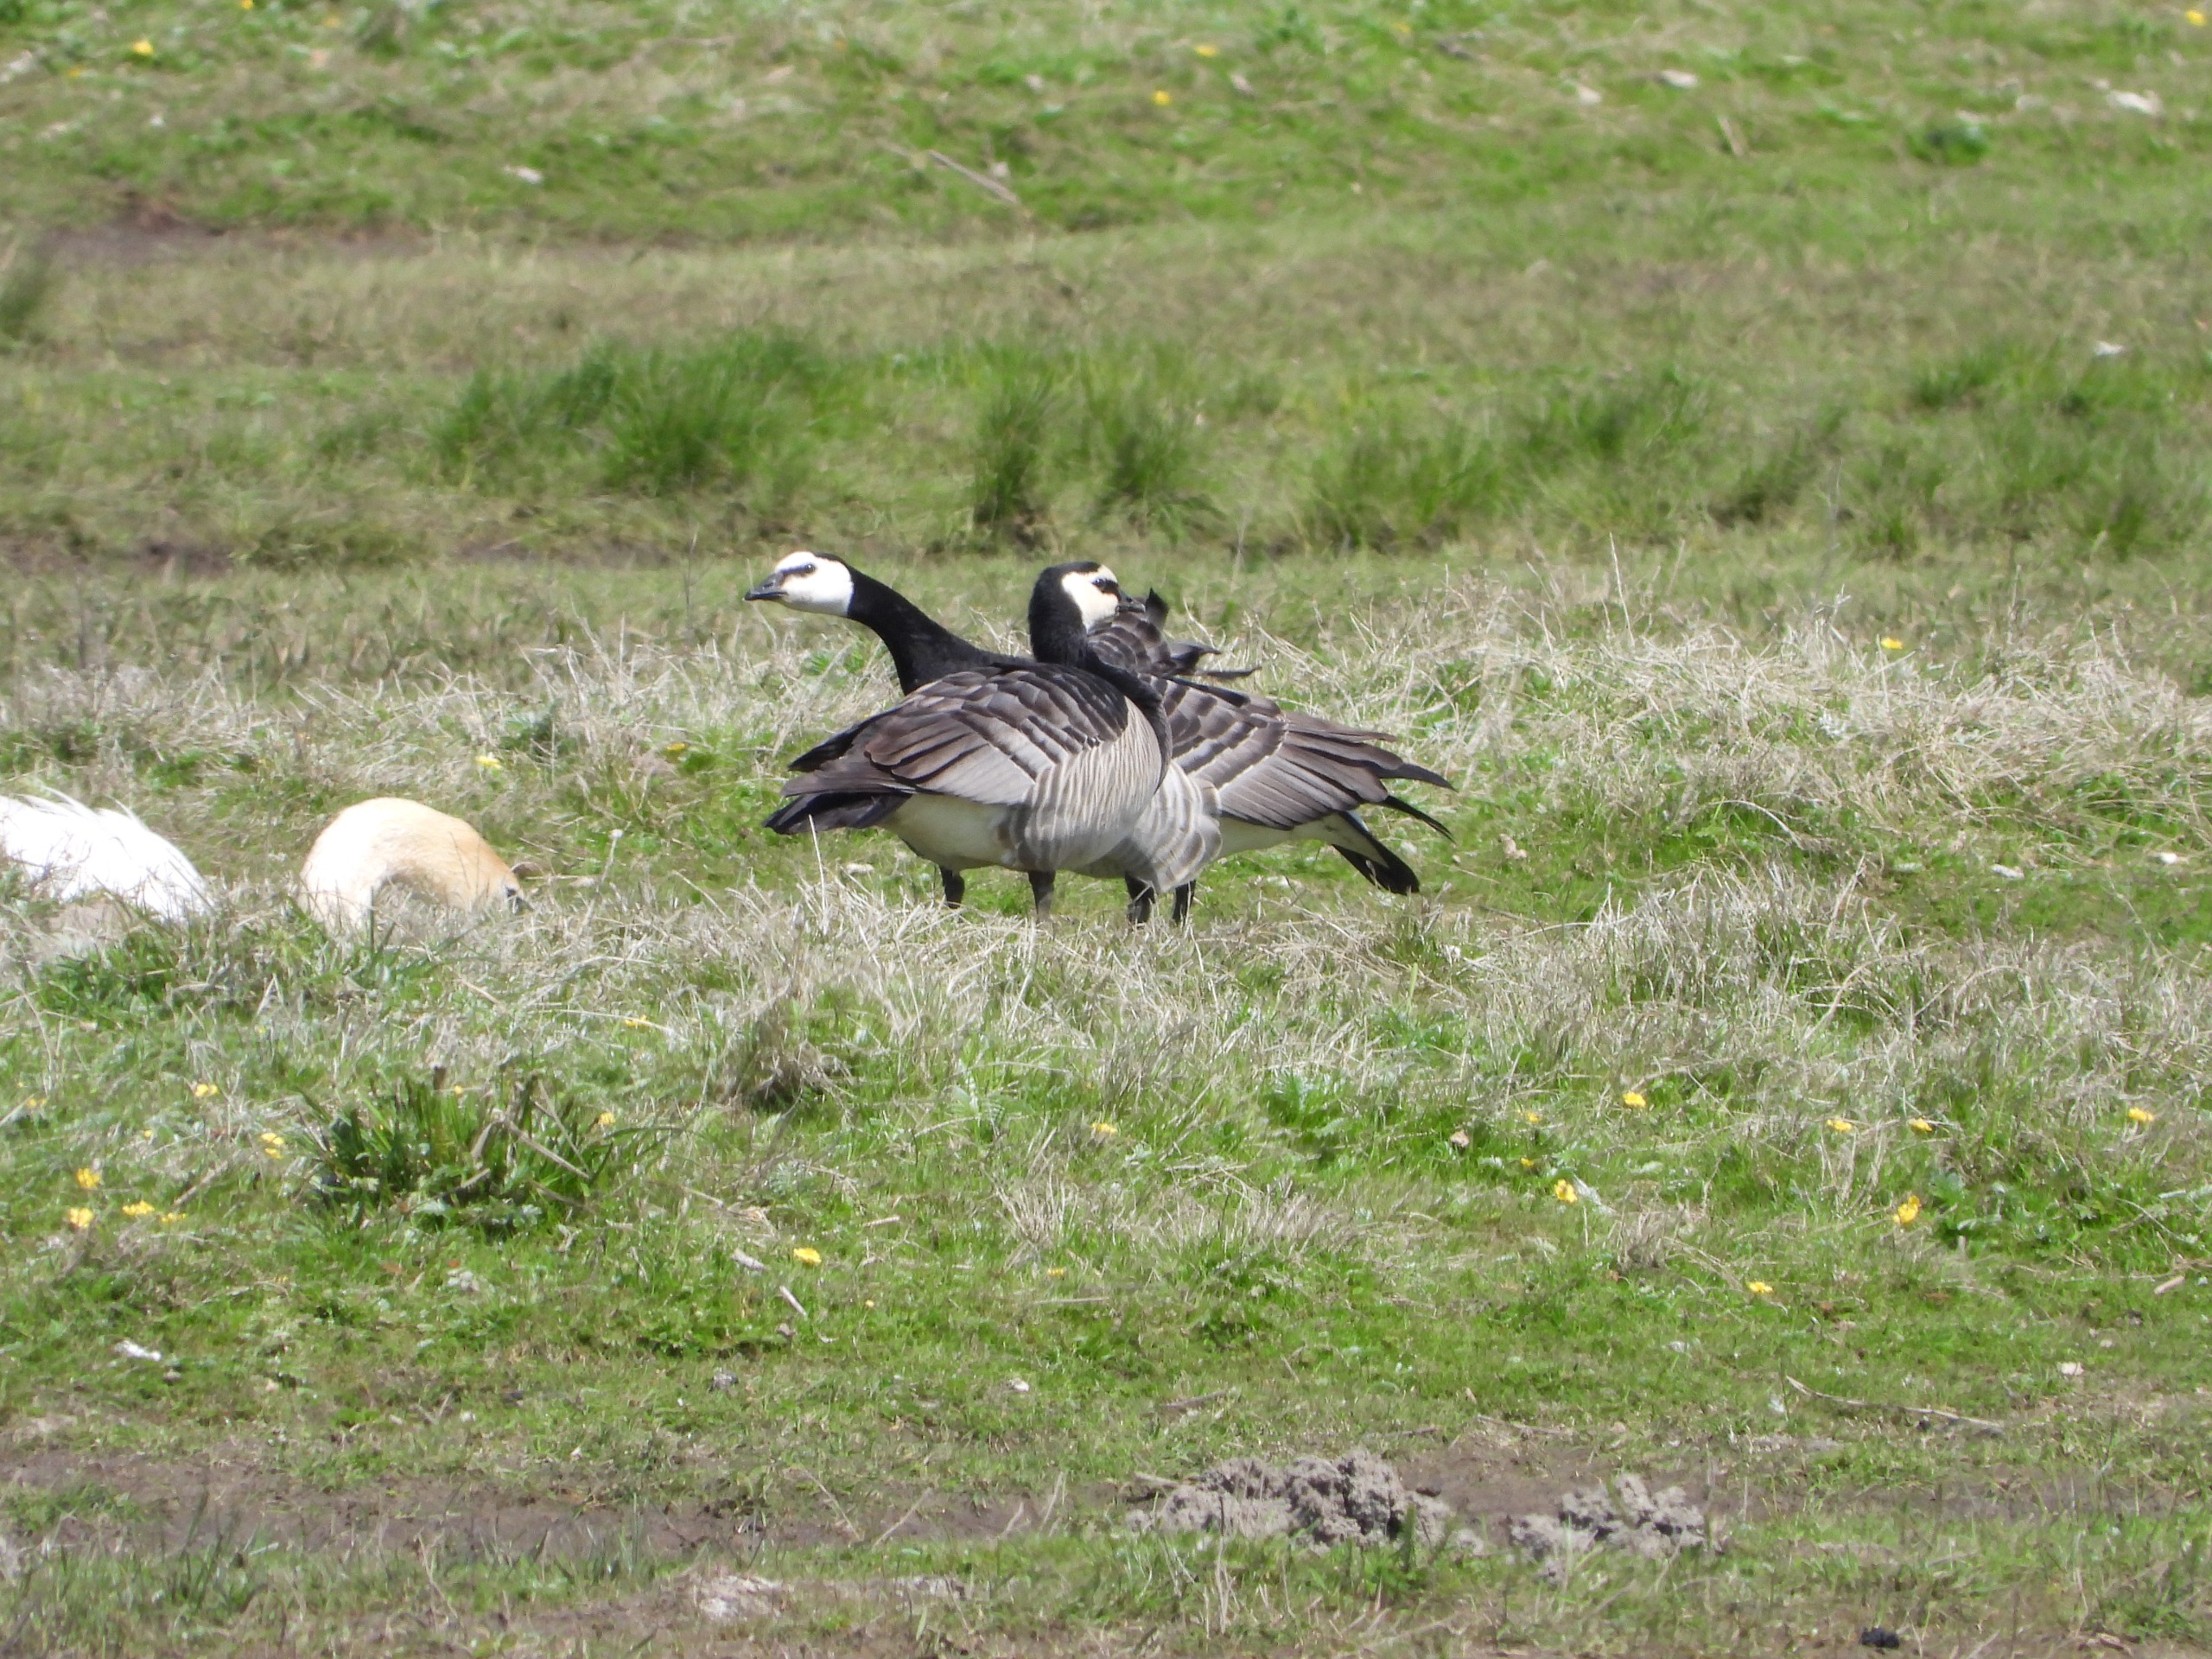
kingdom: Animalia
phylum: Chordata
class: Aves
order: Anseriformes
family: Anatidae
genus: Branta
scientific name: Branta leucopsis
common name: Bramgås
